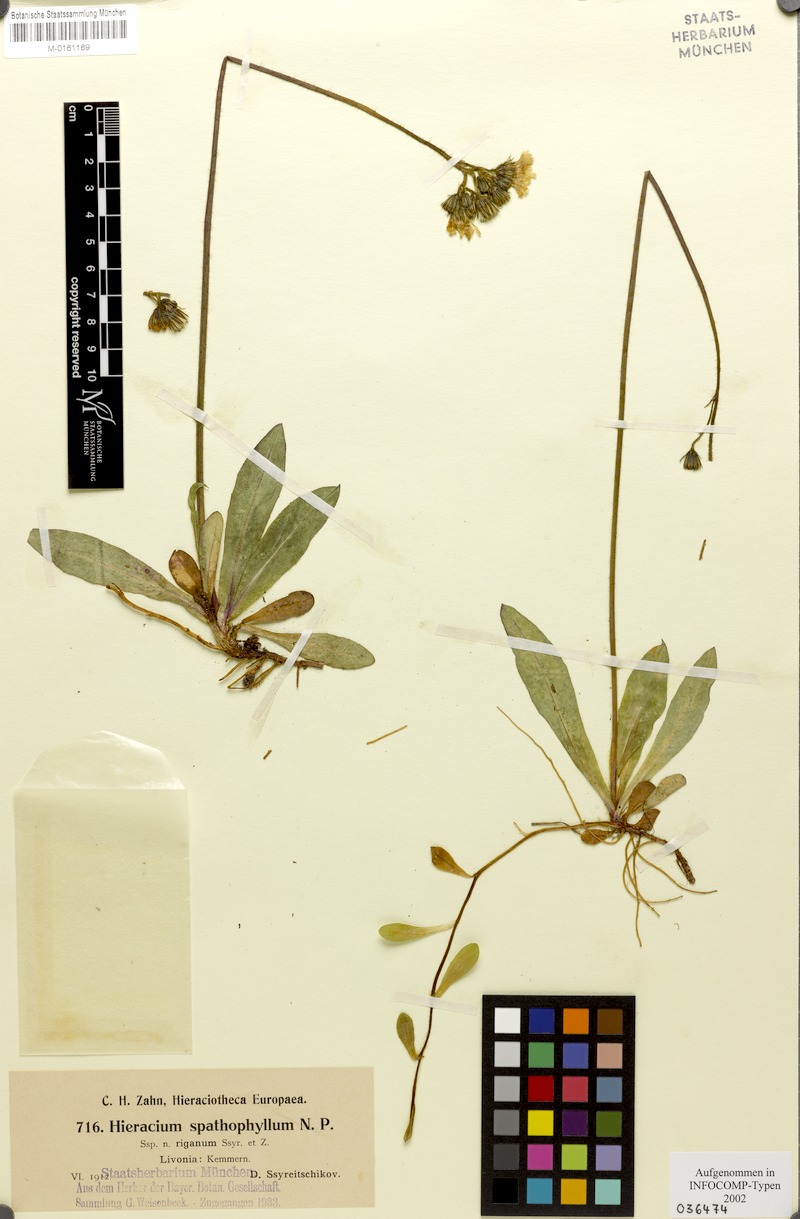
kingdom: Plantae
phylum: Tracheophyta
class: Magnoliopsida
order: Asterales
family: Asteraceae
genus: Pilosella
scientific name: Pilosella longiscapa
